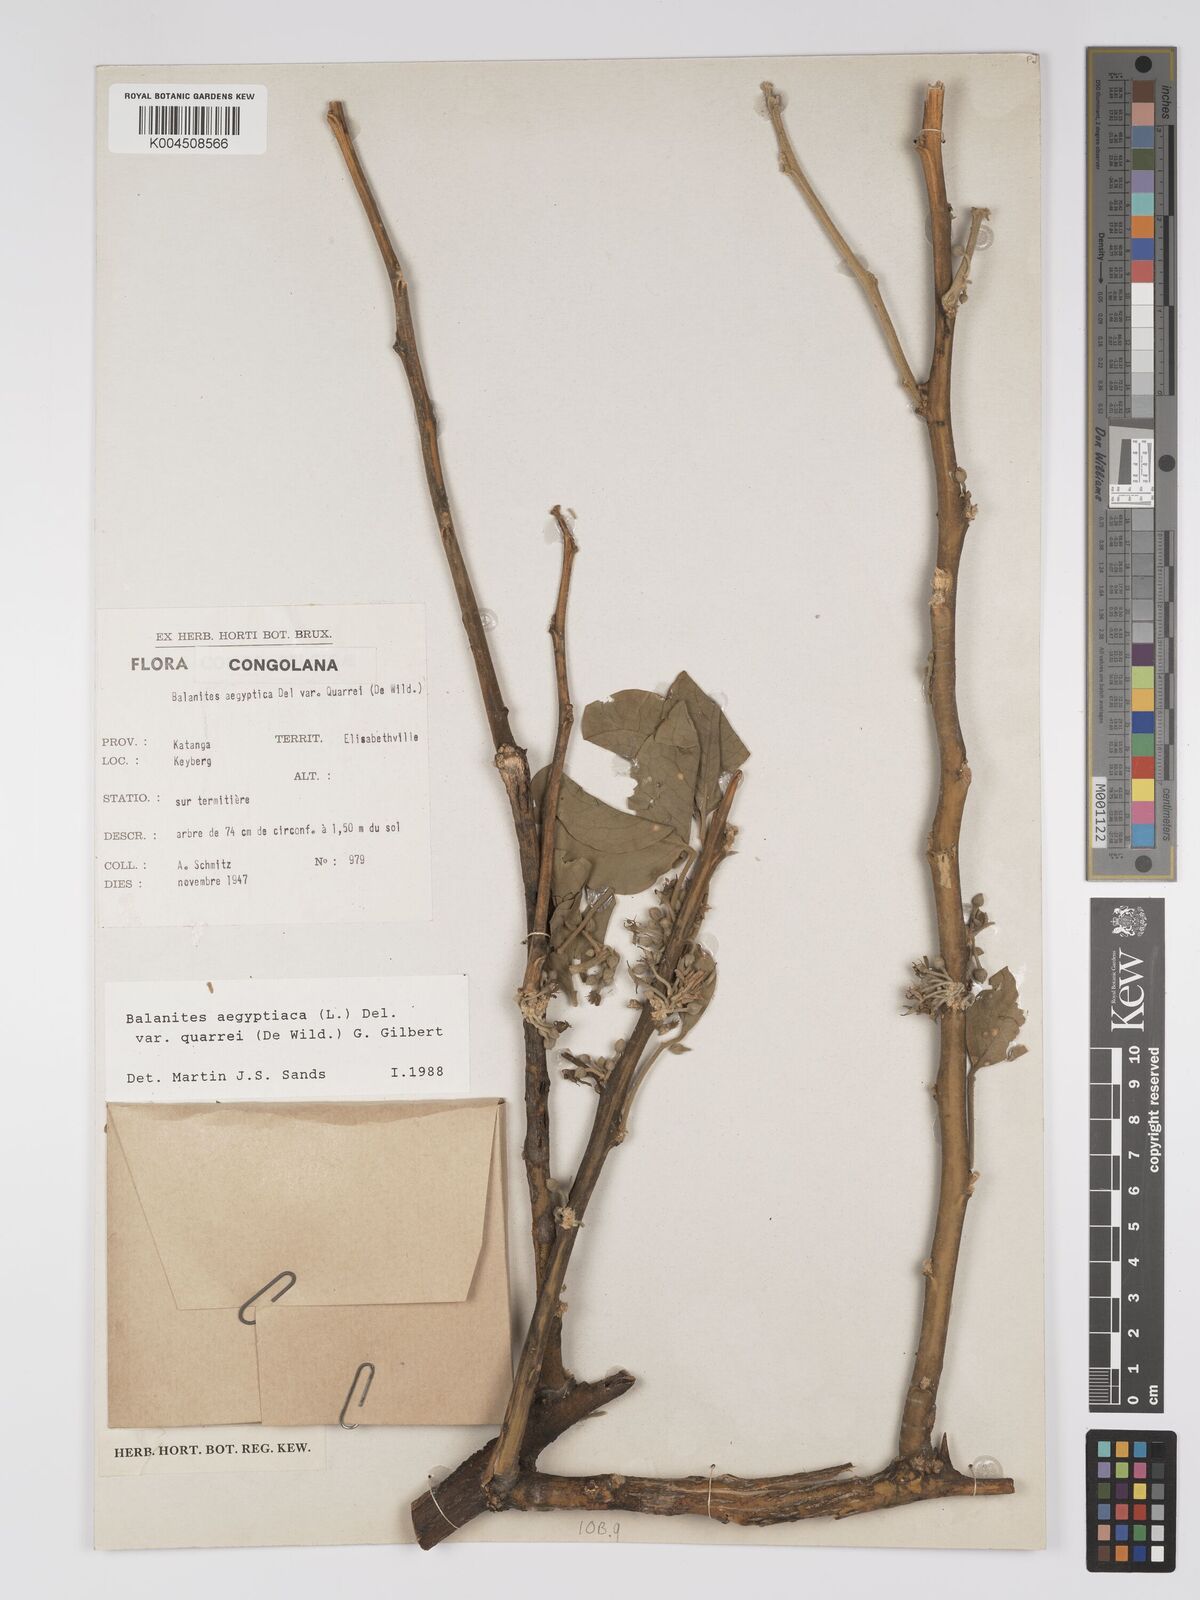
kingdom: Plantae
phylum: Tracheophyta
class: Magnoliopsida
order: Zygophyllales
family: Zygophyllaceae
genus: Balanites
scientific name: Balanites aegyptiaca
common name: Balanites
